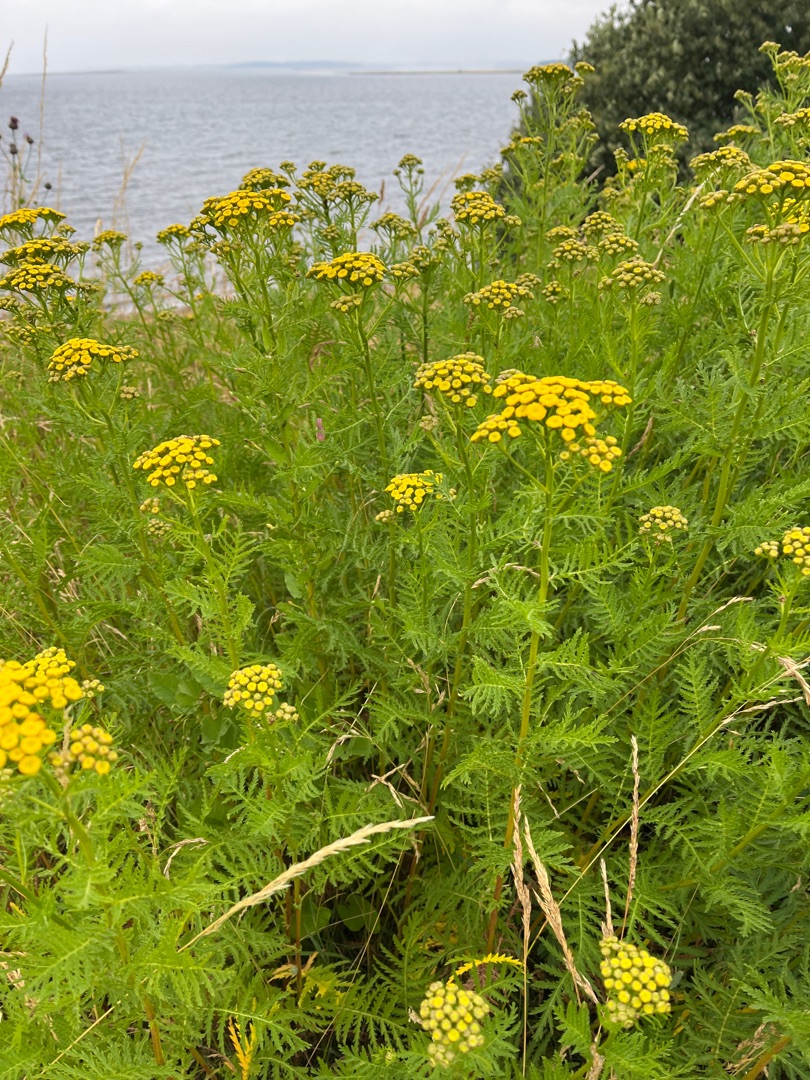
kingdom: Plantae
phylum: Tracheophyta
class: Magnoliopsida
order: Asterales
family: Asteraceae
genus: Tanacetum
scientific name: Tanacetum vulgare
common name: Rejnfan
